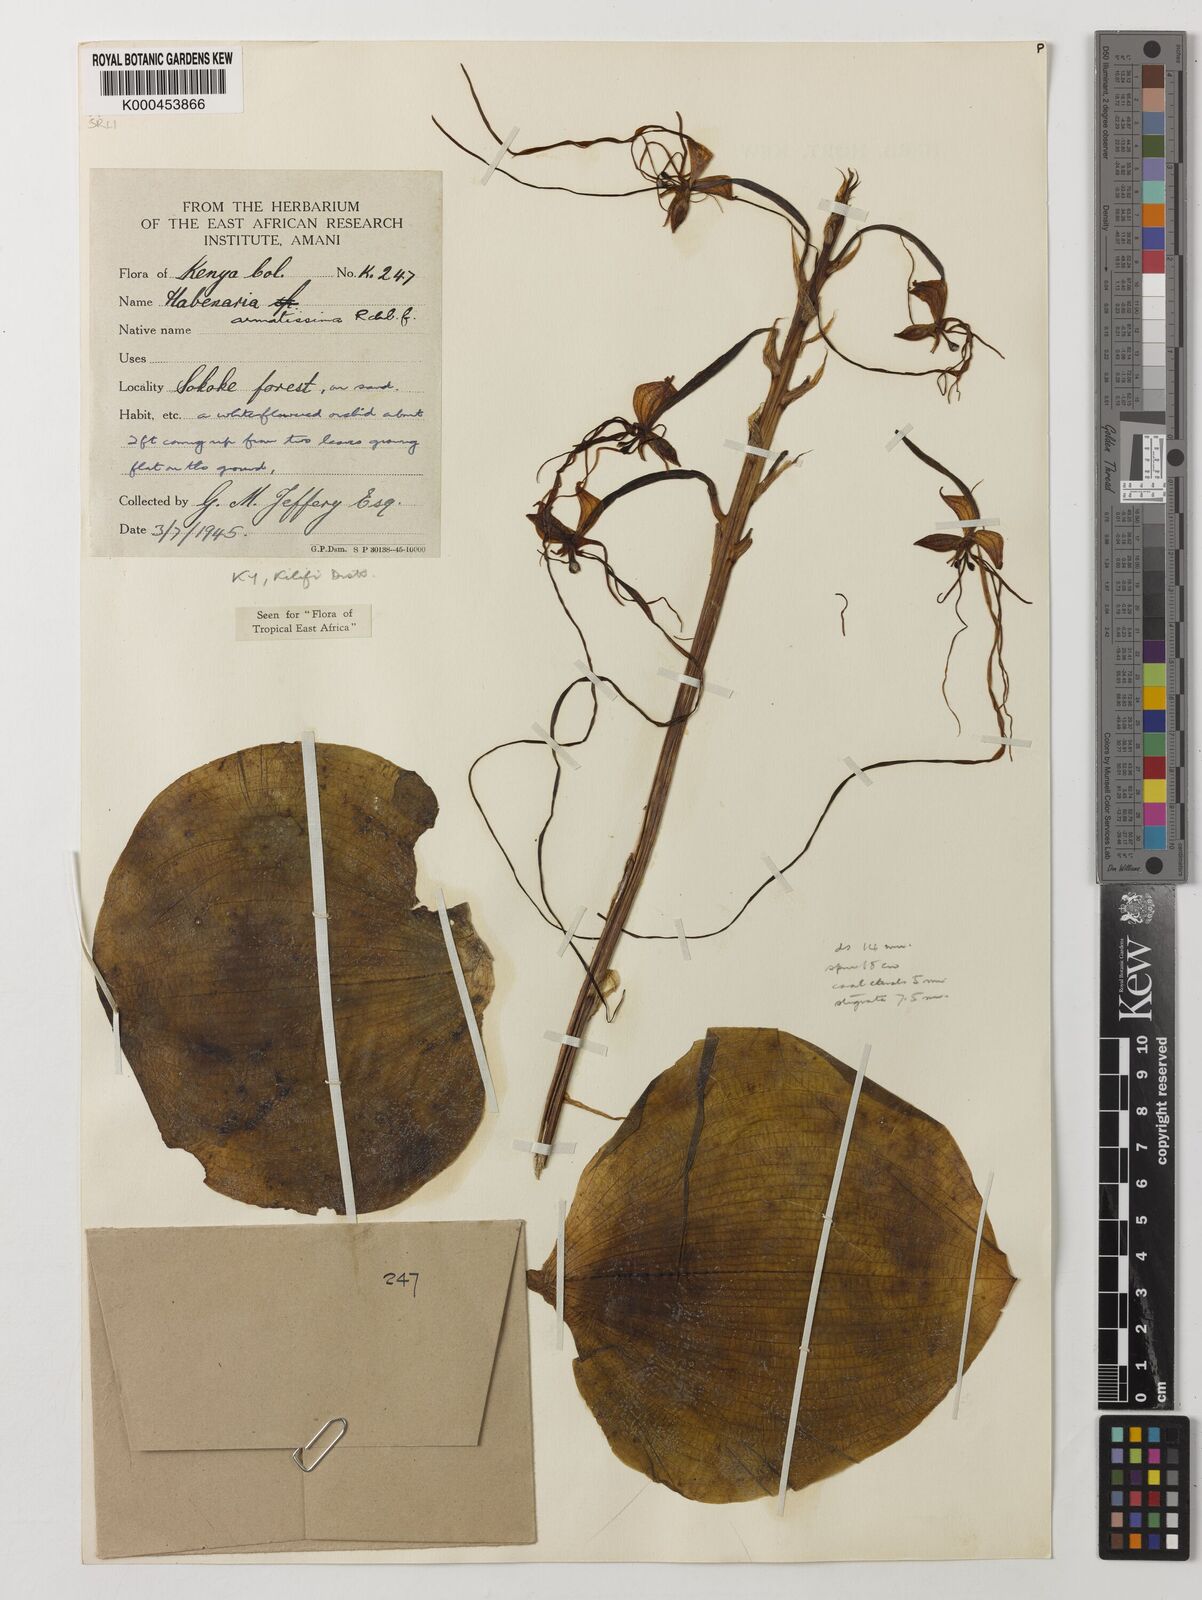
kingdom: Plantae
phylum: Tracheophyta
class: Liliopsida
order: Asparagales
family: Orchidaceae
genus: Habenaria
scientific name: Habenaria armatissima
